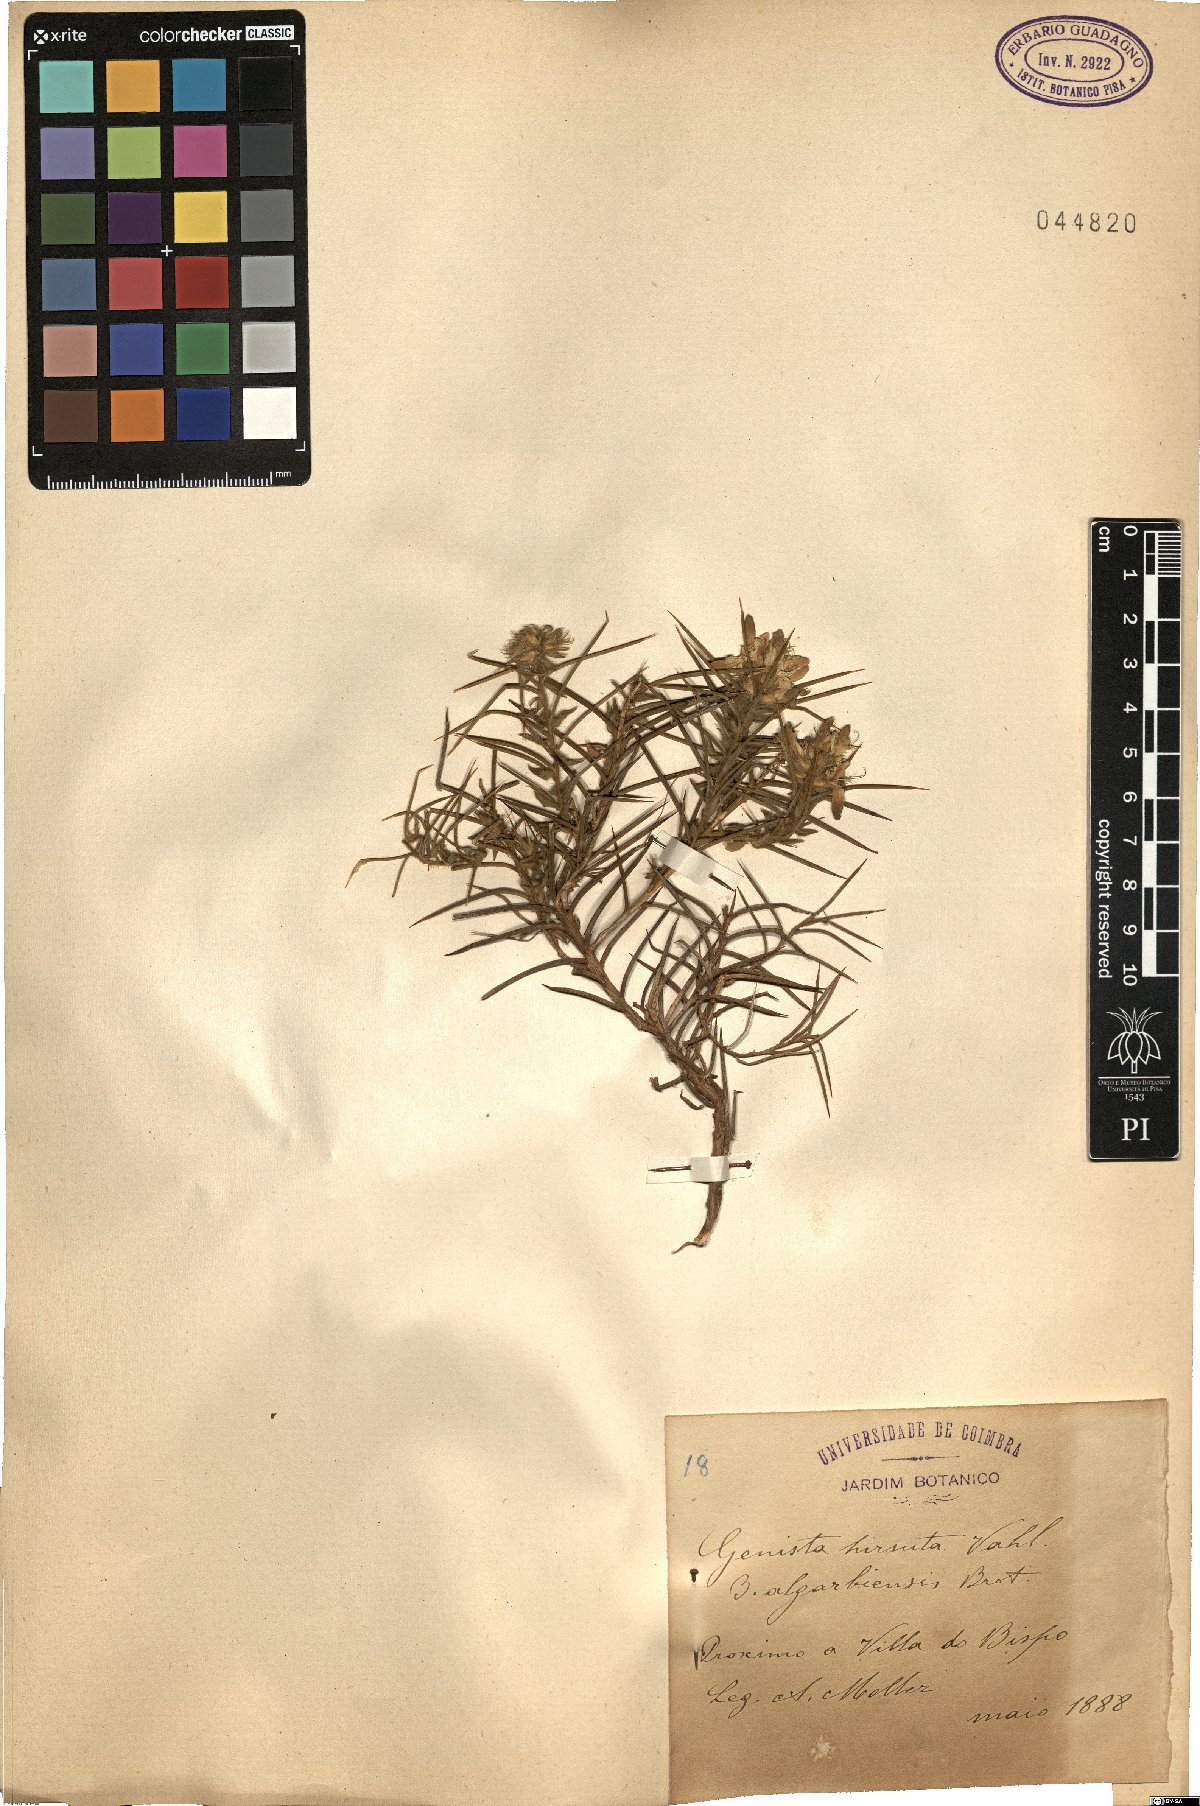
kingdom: Plantae
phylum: Tracheophyta
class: Magnoliopsida
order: Fabales
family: Fabaceae
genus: Genista
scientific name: Genista hirsuta
